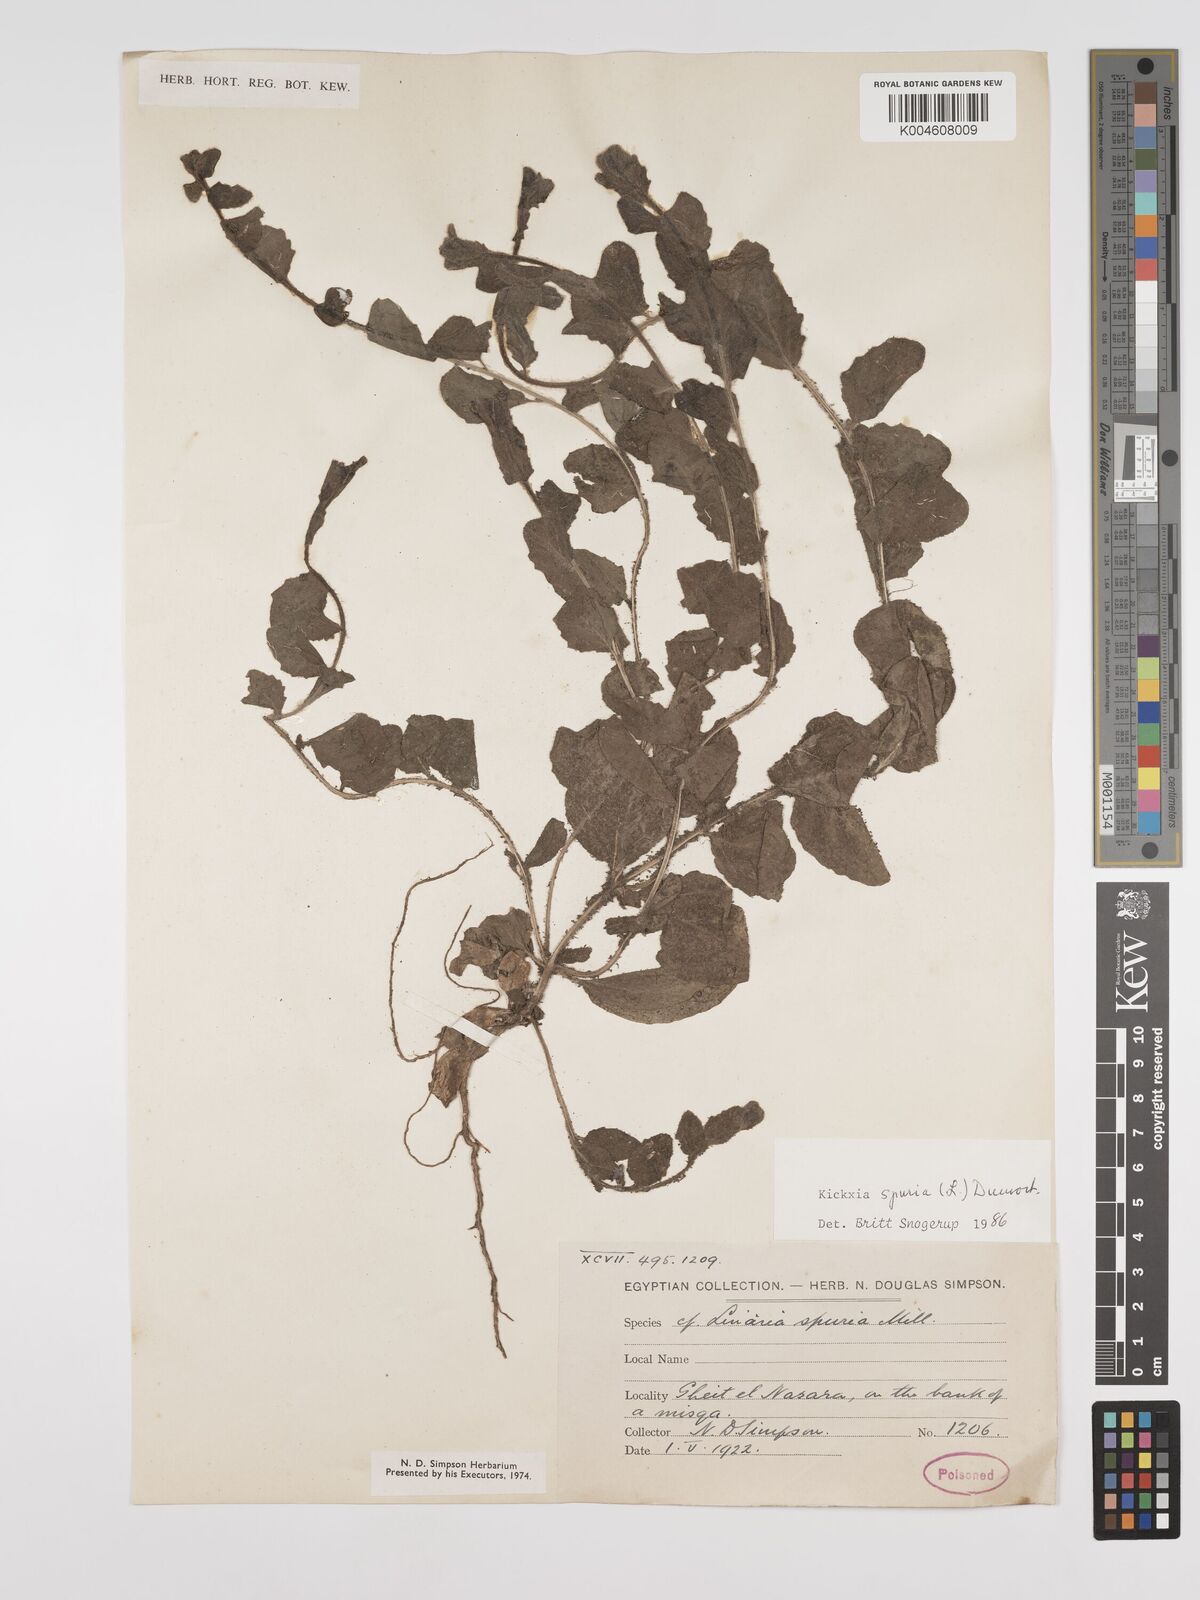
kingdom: Plantae
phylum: Tracheophyta
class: Magnoliopsida
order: Lamiales
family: Plantaginaceae
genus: Kickxia
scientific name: Kickxia spuria
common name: Round-leaved fluellen
